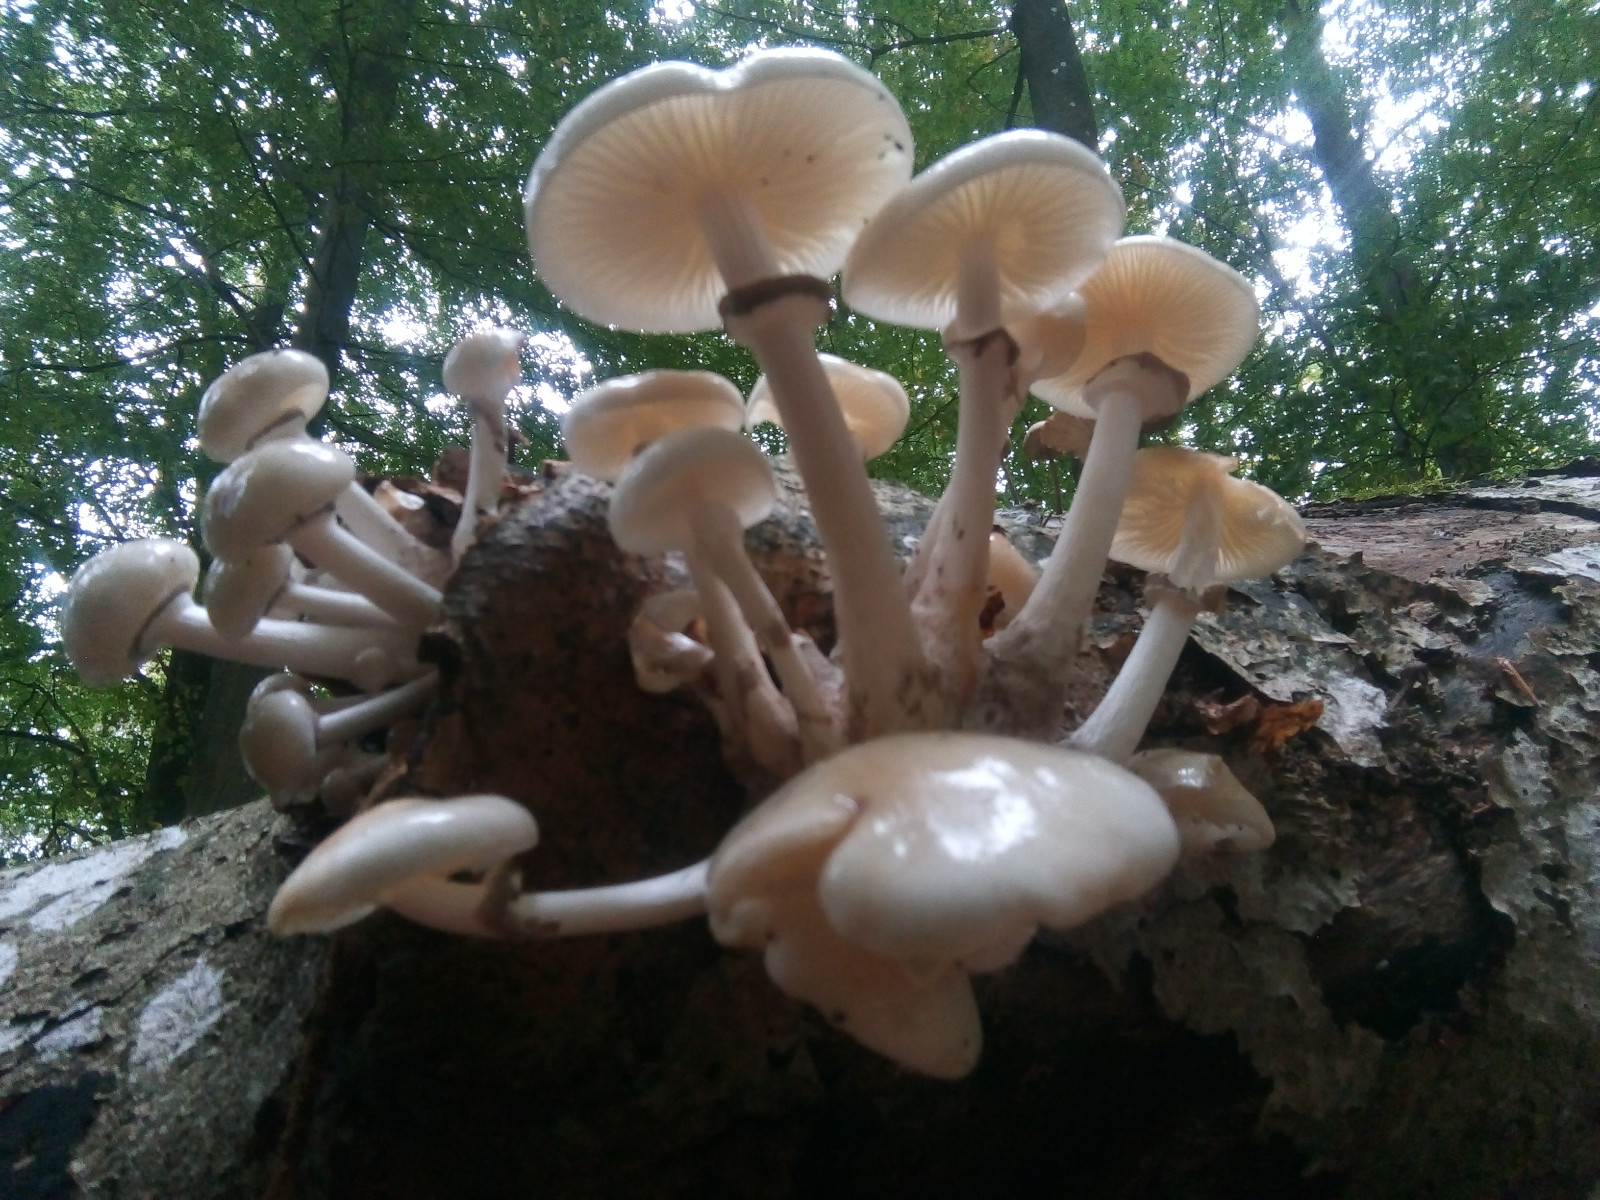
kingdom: Fungi
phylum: Basidiomycota
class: Agaricomycetes
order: Agaricales
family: Physalacriaceae
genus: Mucidula
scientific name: Mucidula mucida
